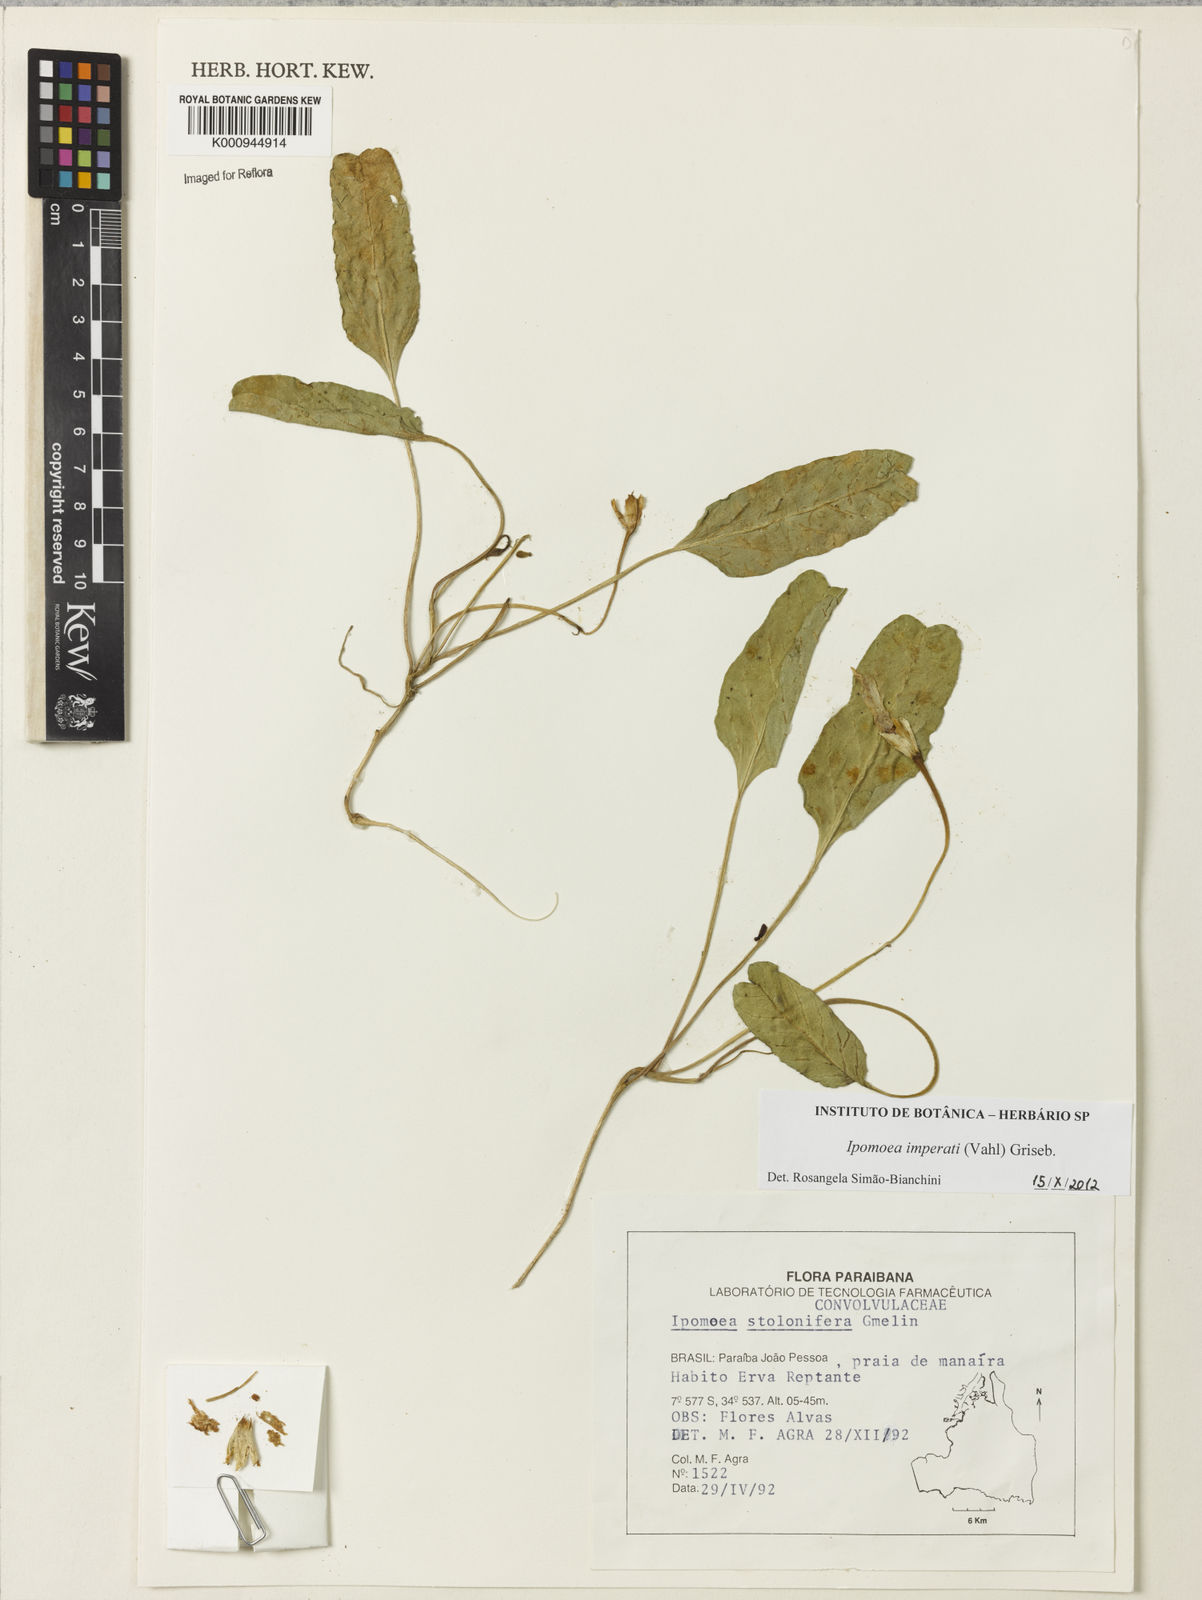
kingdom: Plantae
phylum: Tracheophyta
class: Magnoliopsida
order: Solanales
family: Convolvulaceae
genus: Ipomoea
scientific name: Ipomoea imperati
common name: Fiddle-leaf morning-glory
